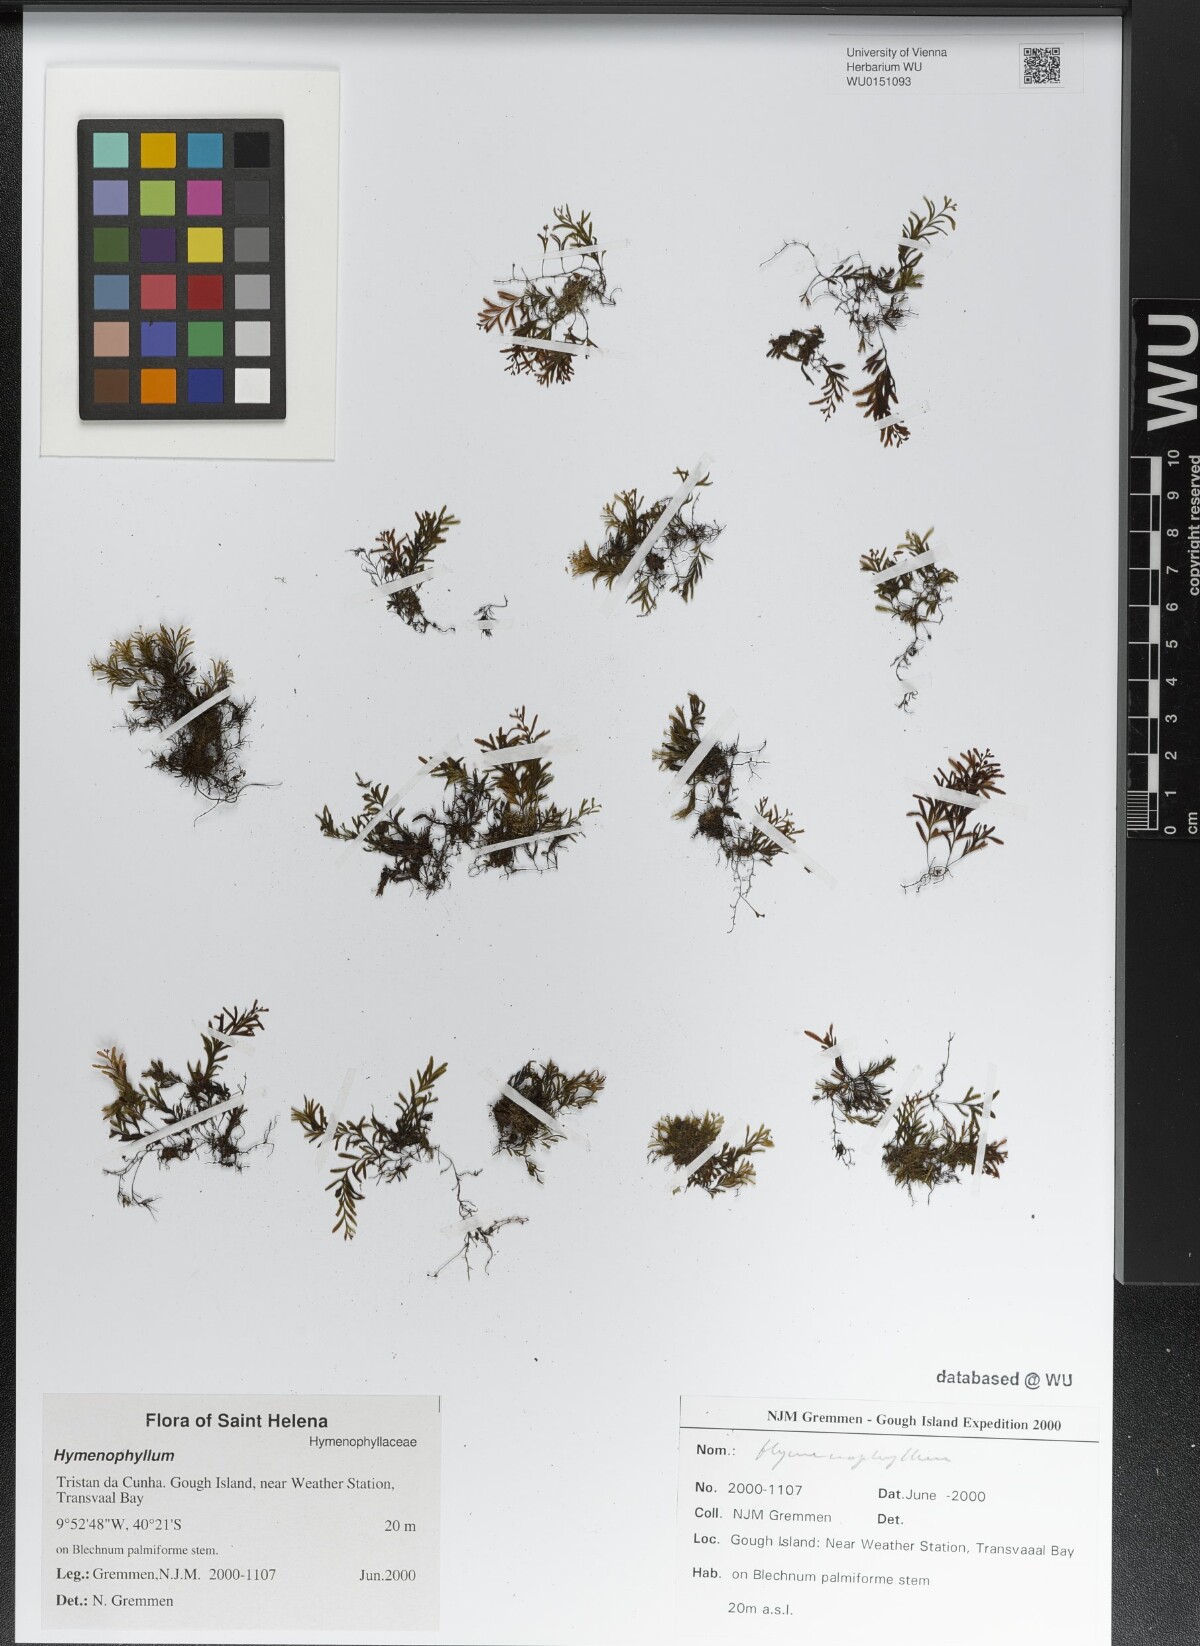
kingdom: Plantae
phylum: Tracheophyta
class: Polypodiopsida
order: Hymenophyllales
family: Hymenophyllaceae
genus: Hymenophyllum
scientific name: Hymenophyllum
